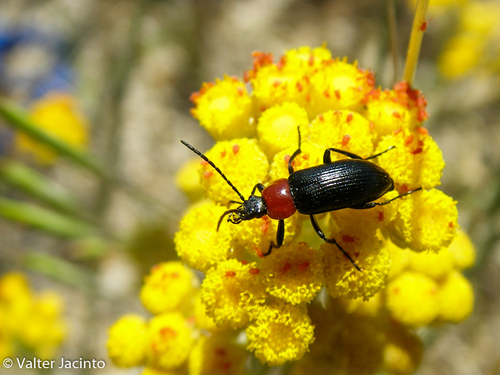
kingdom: Animalia
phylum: Arthropoda
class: Insecta
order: Coleoptera
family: Tenebrionidae
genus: Heliotaurus
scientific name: Heliotaurus ruficollis
